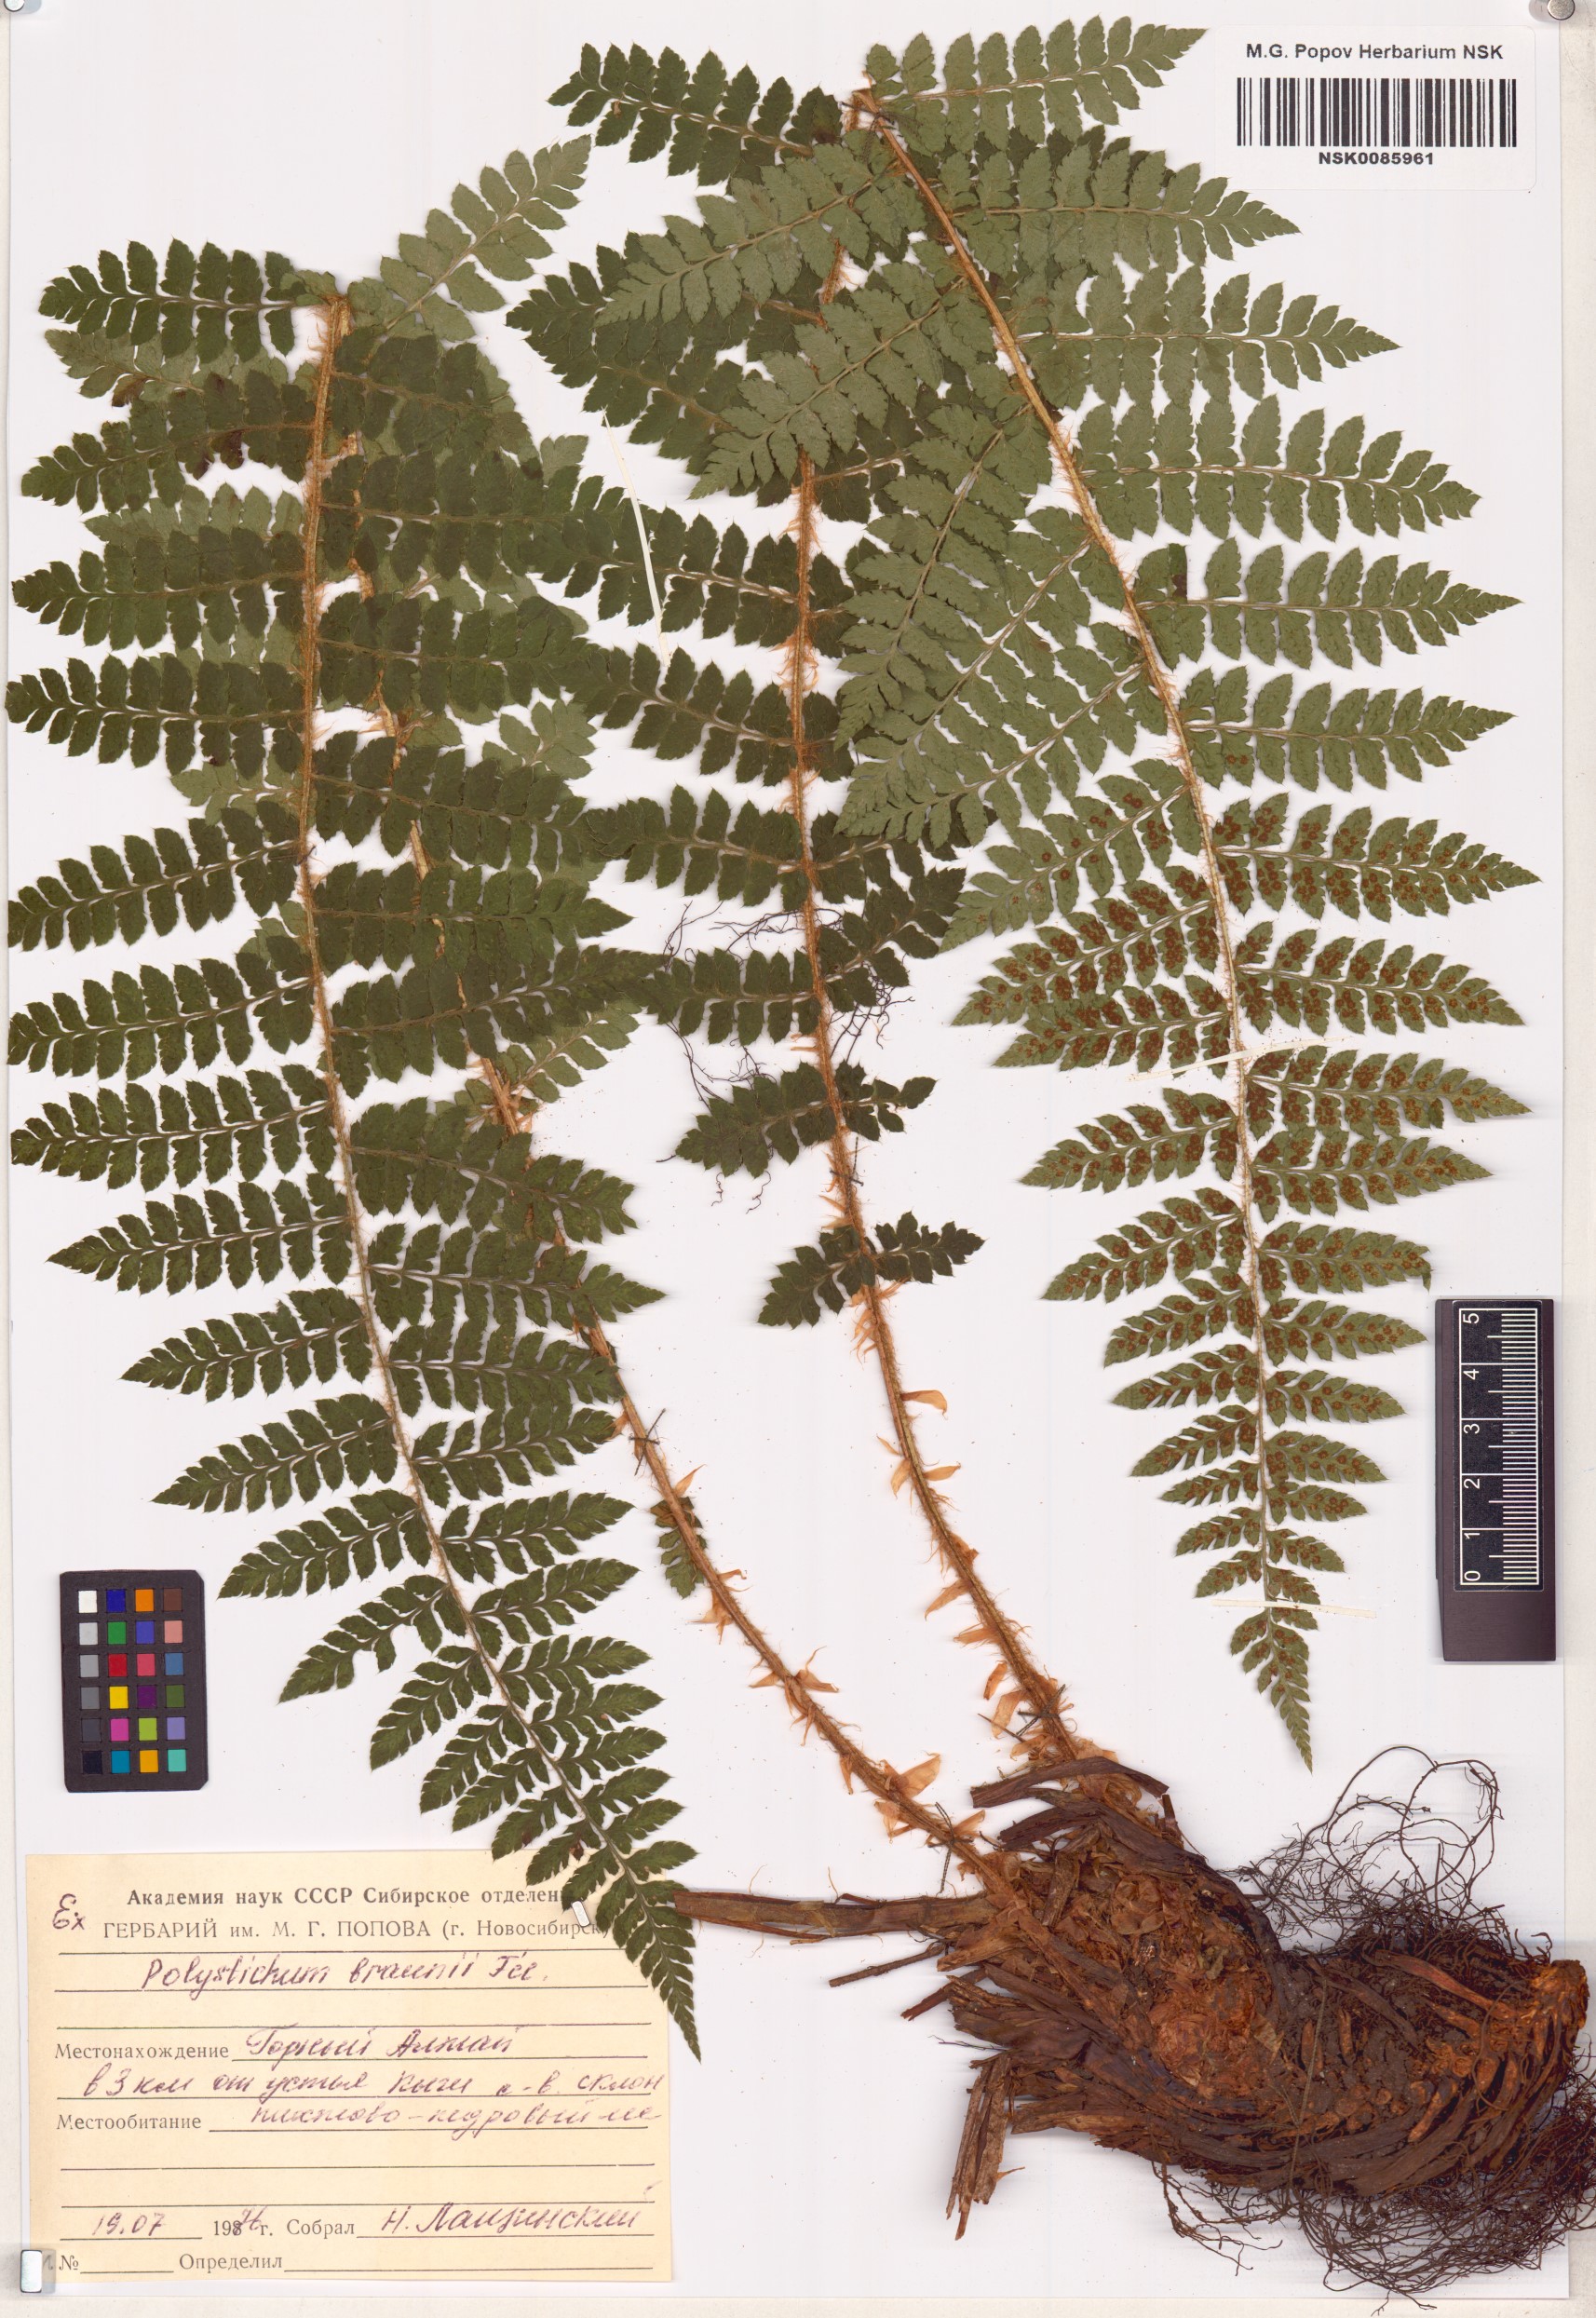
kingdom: Plantae
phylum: Tracheophyta
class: Polypodiopsida
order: Polypodiales
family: Dryopteridaceae
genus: Polystichum
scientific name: Polystichum braunii
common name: Braun's holly fern
